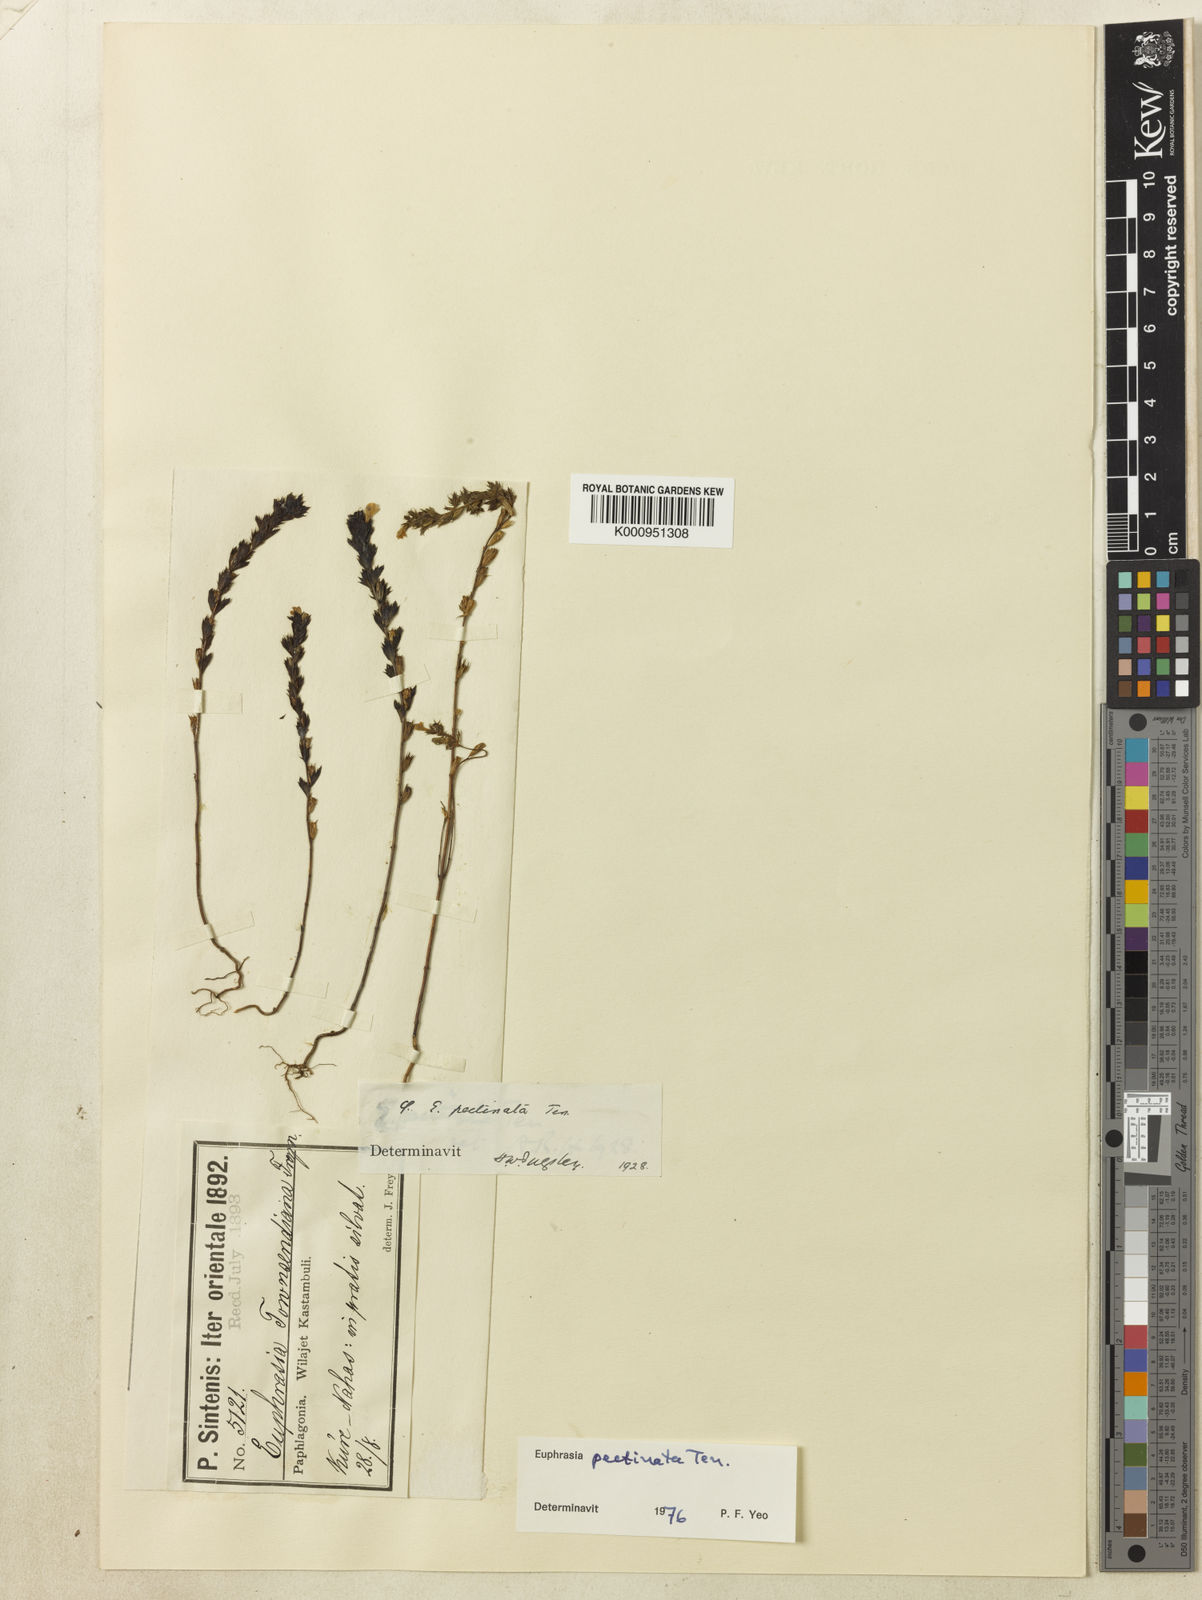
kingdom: Plantae
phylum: Tracheophyta
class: Magnoliopsida
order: Lamiales
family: Orobanchaceae
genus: Euphrasia
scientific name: Euphrasia pectinata
